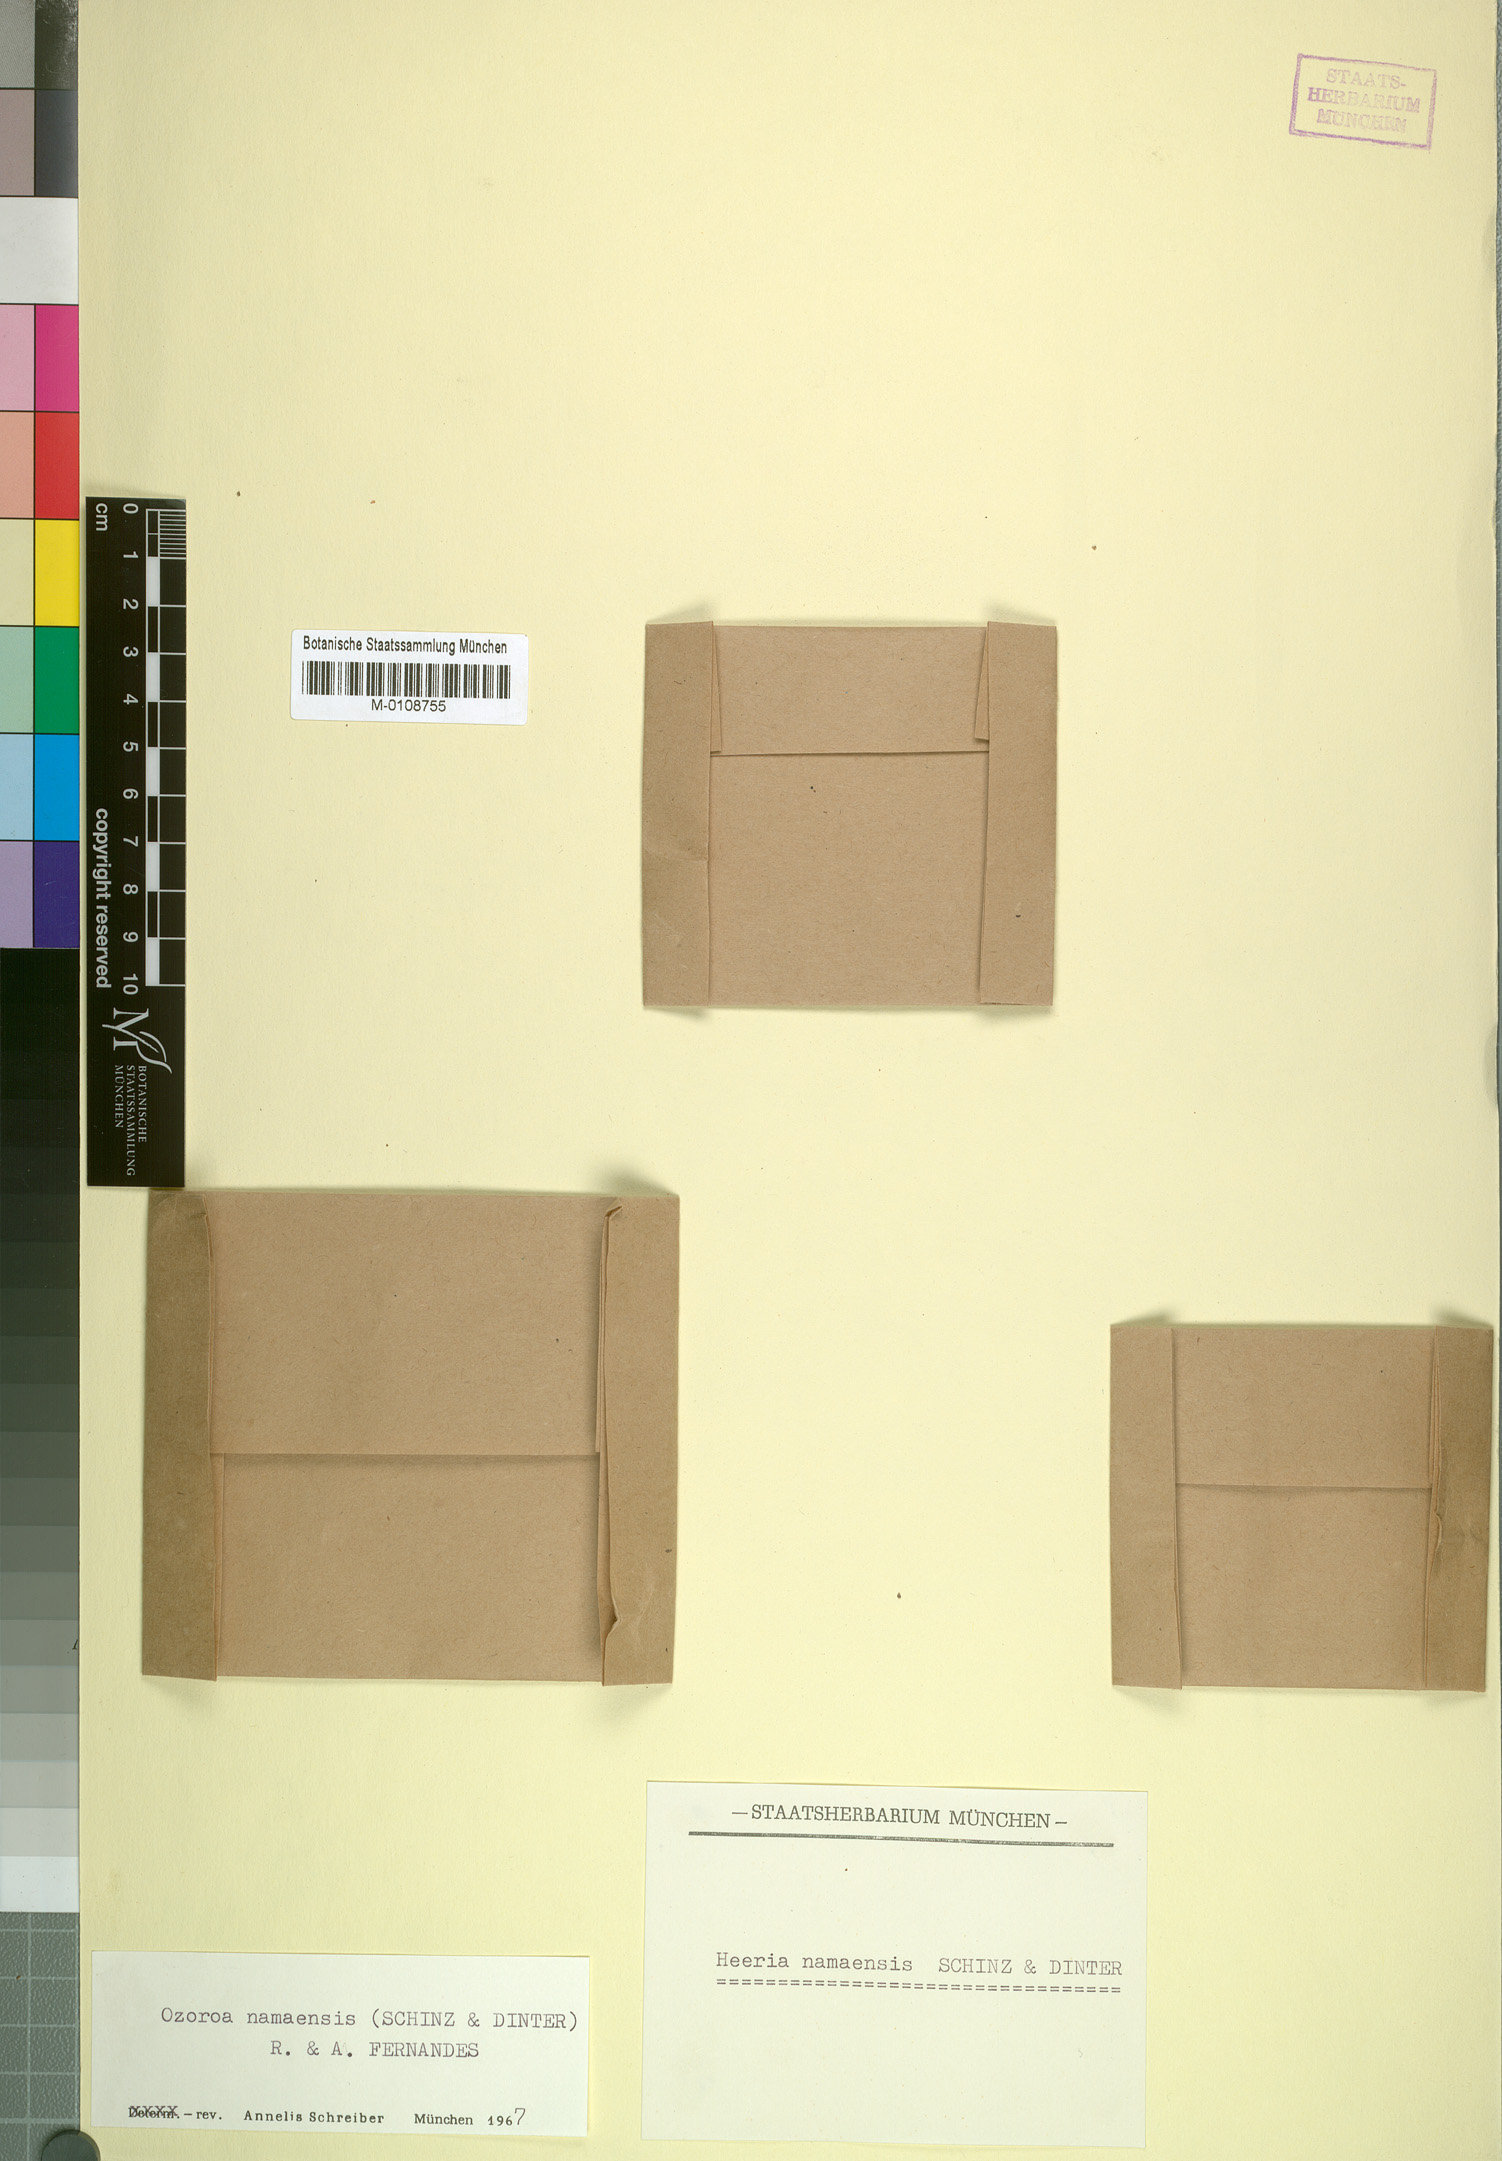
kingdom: Plantae
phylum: Tracheophyta
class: Magnoliopsida
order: Sapindales
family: Anacardiaceae
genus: Ozoroa
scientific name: Ozoroa namaensis
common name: Nama resin tree
